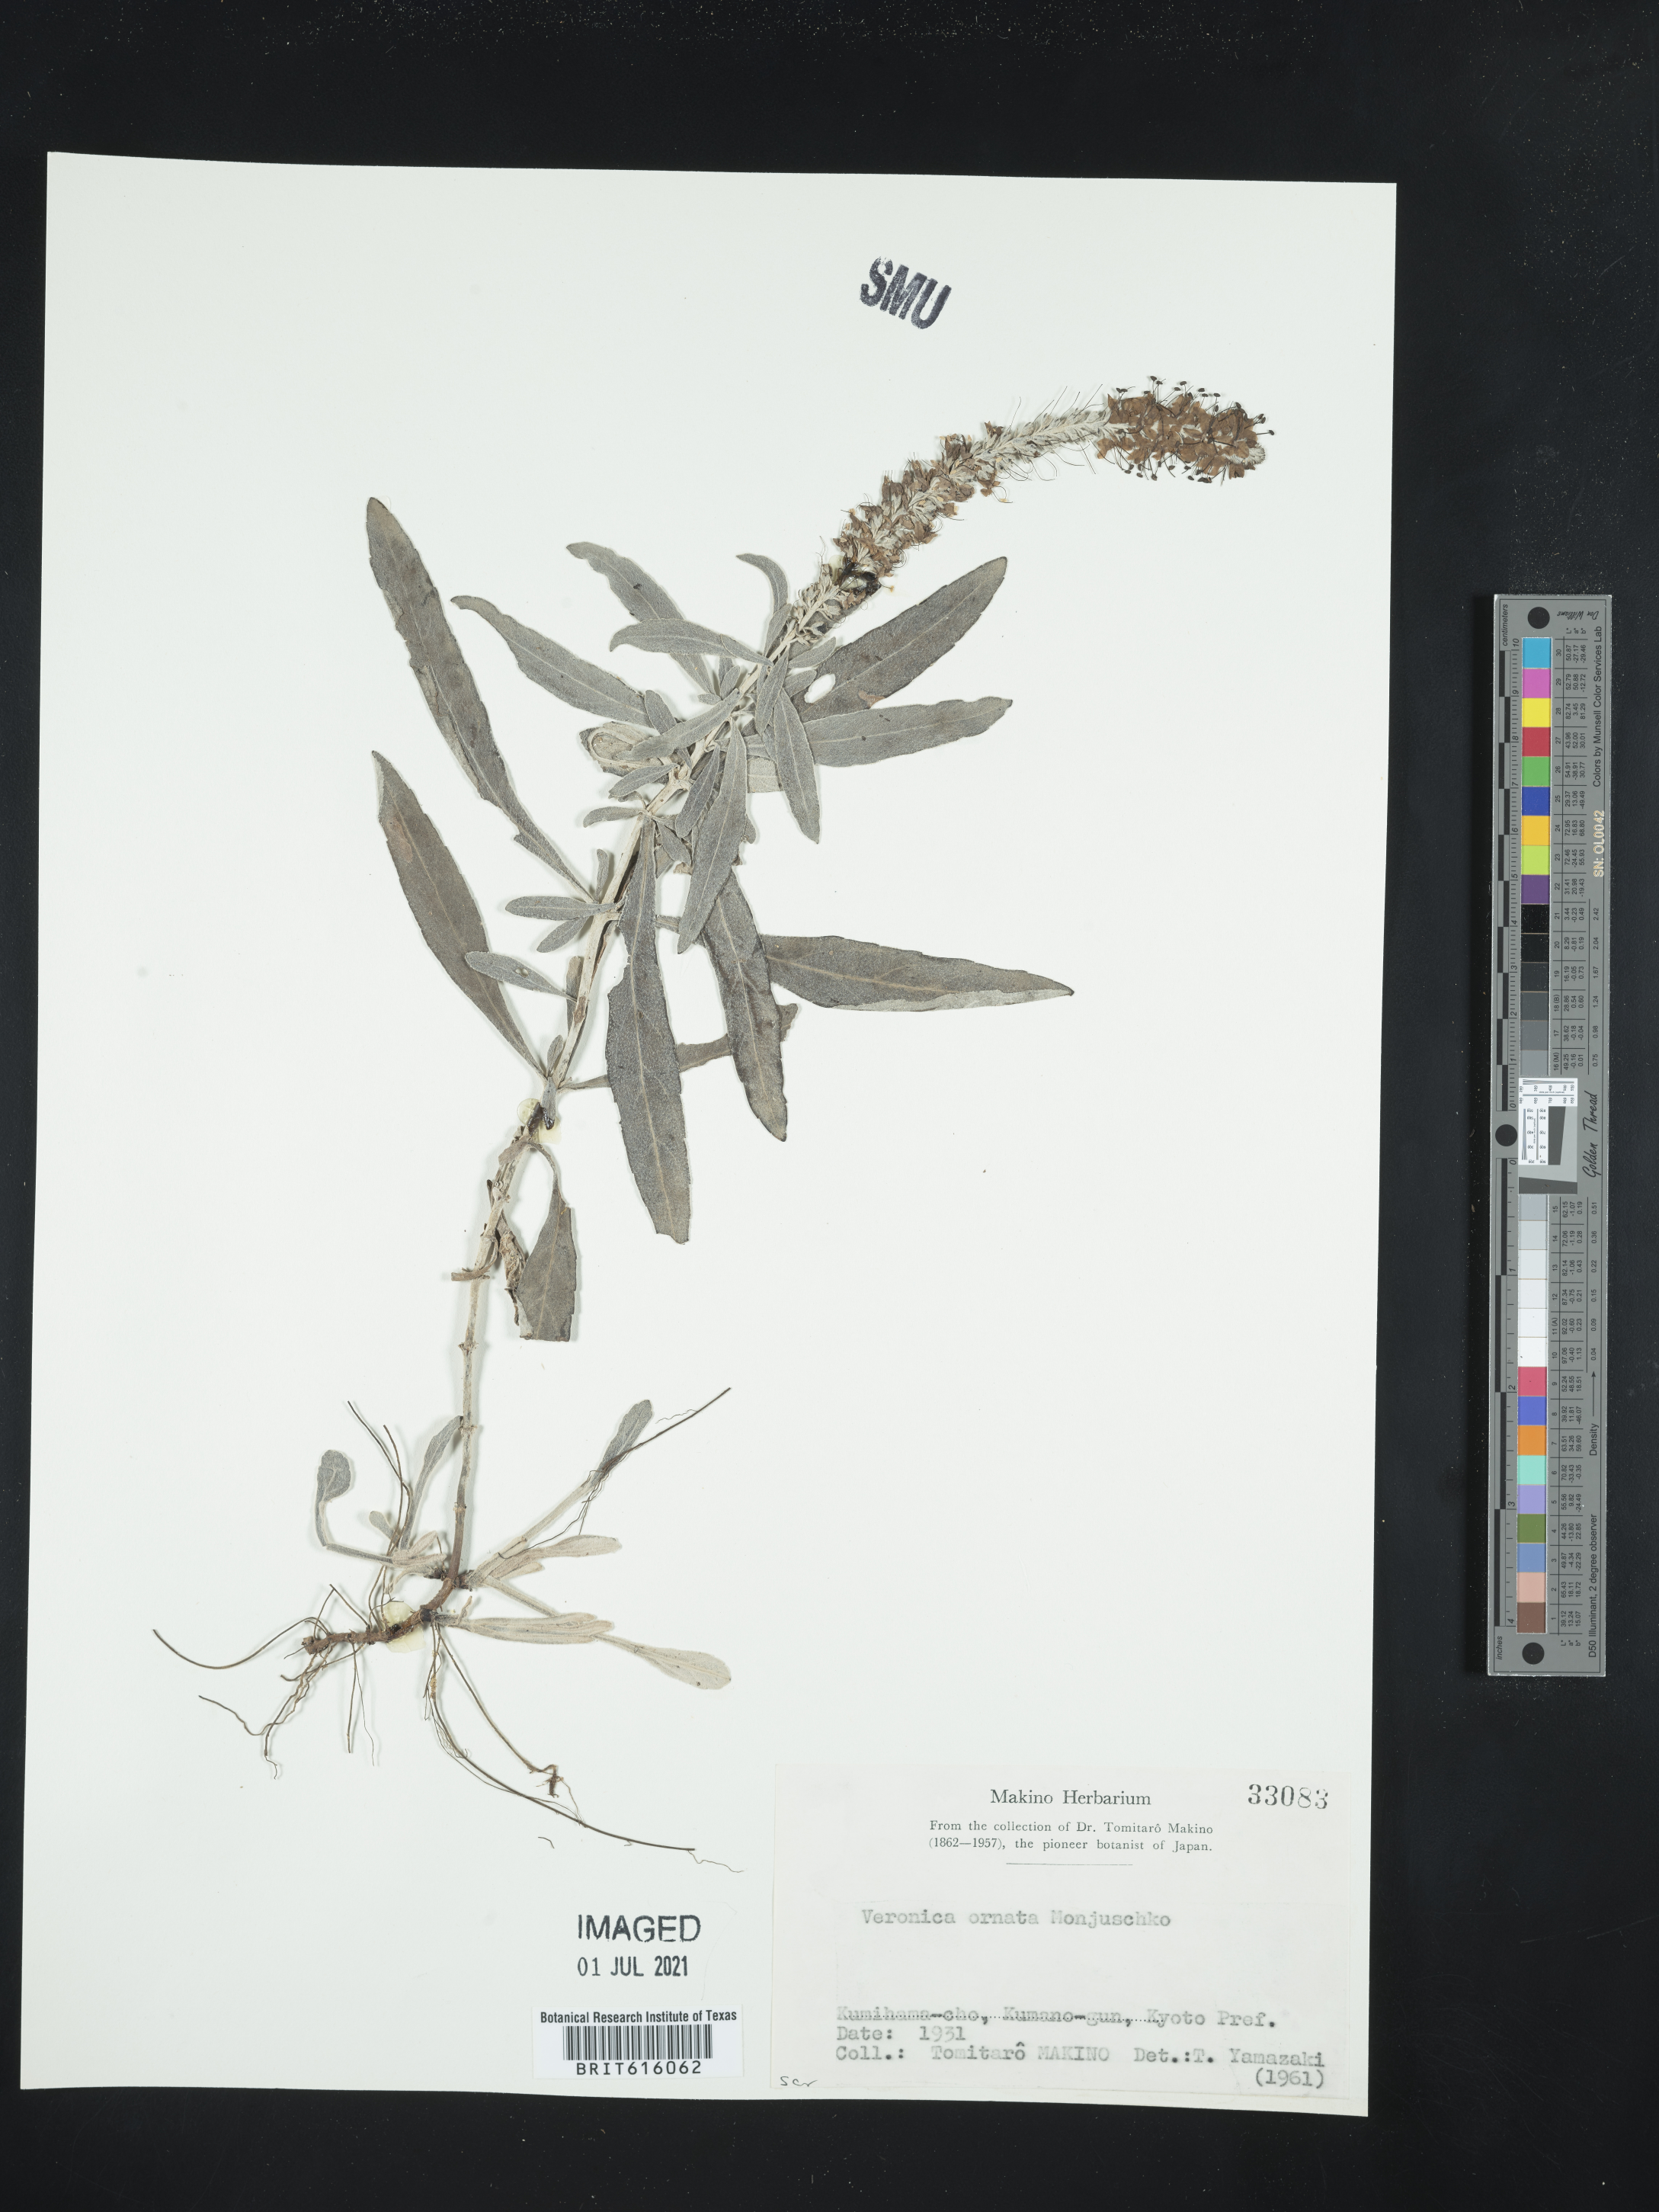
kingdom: Plantae
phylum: Tracheophyta
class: Magnoliopsida
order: Lamiales
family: Plantaginaceae
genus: Veronica
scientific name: Veronica ornata
